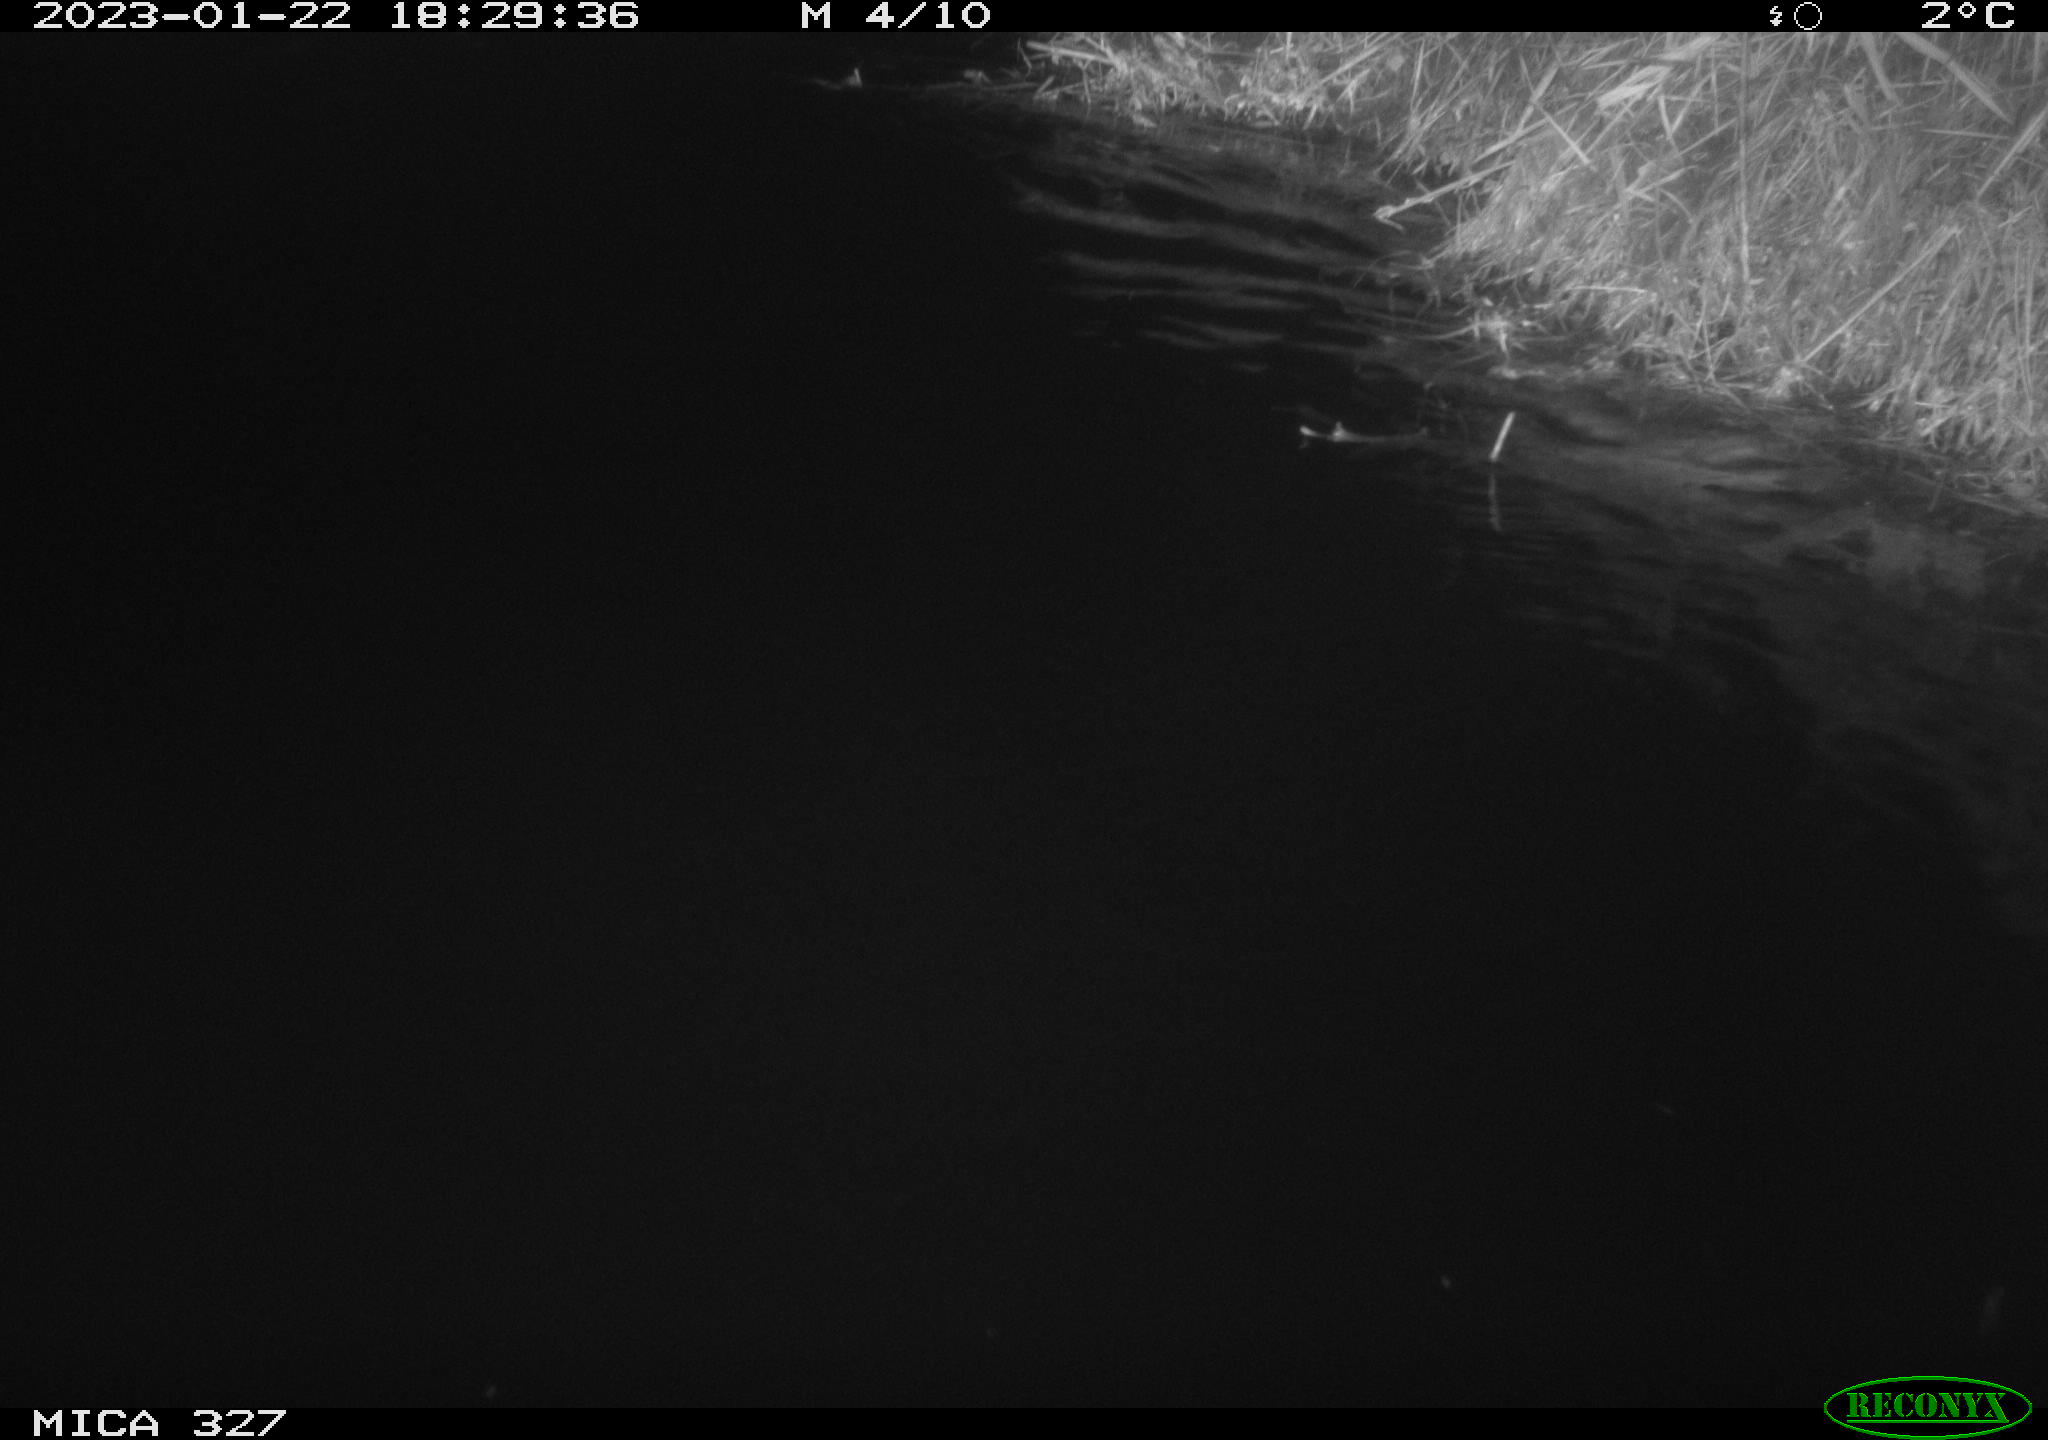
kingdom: Animalia
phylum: Chordata
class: Mammalia
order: Rodentia
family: Cricetidae
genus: Ondatra
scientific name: Ondatra zibethicus
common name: Muskrat
